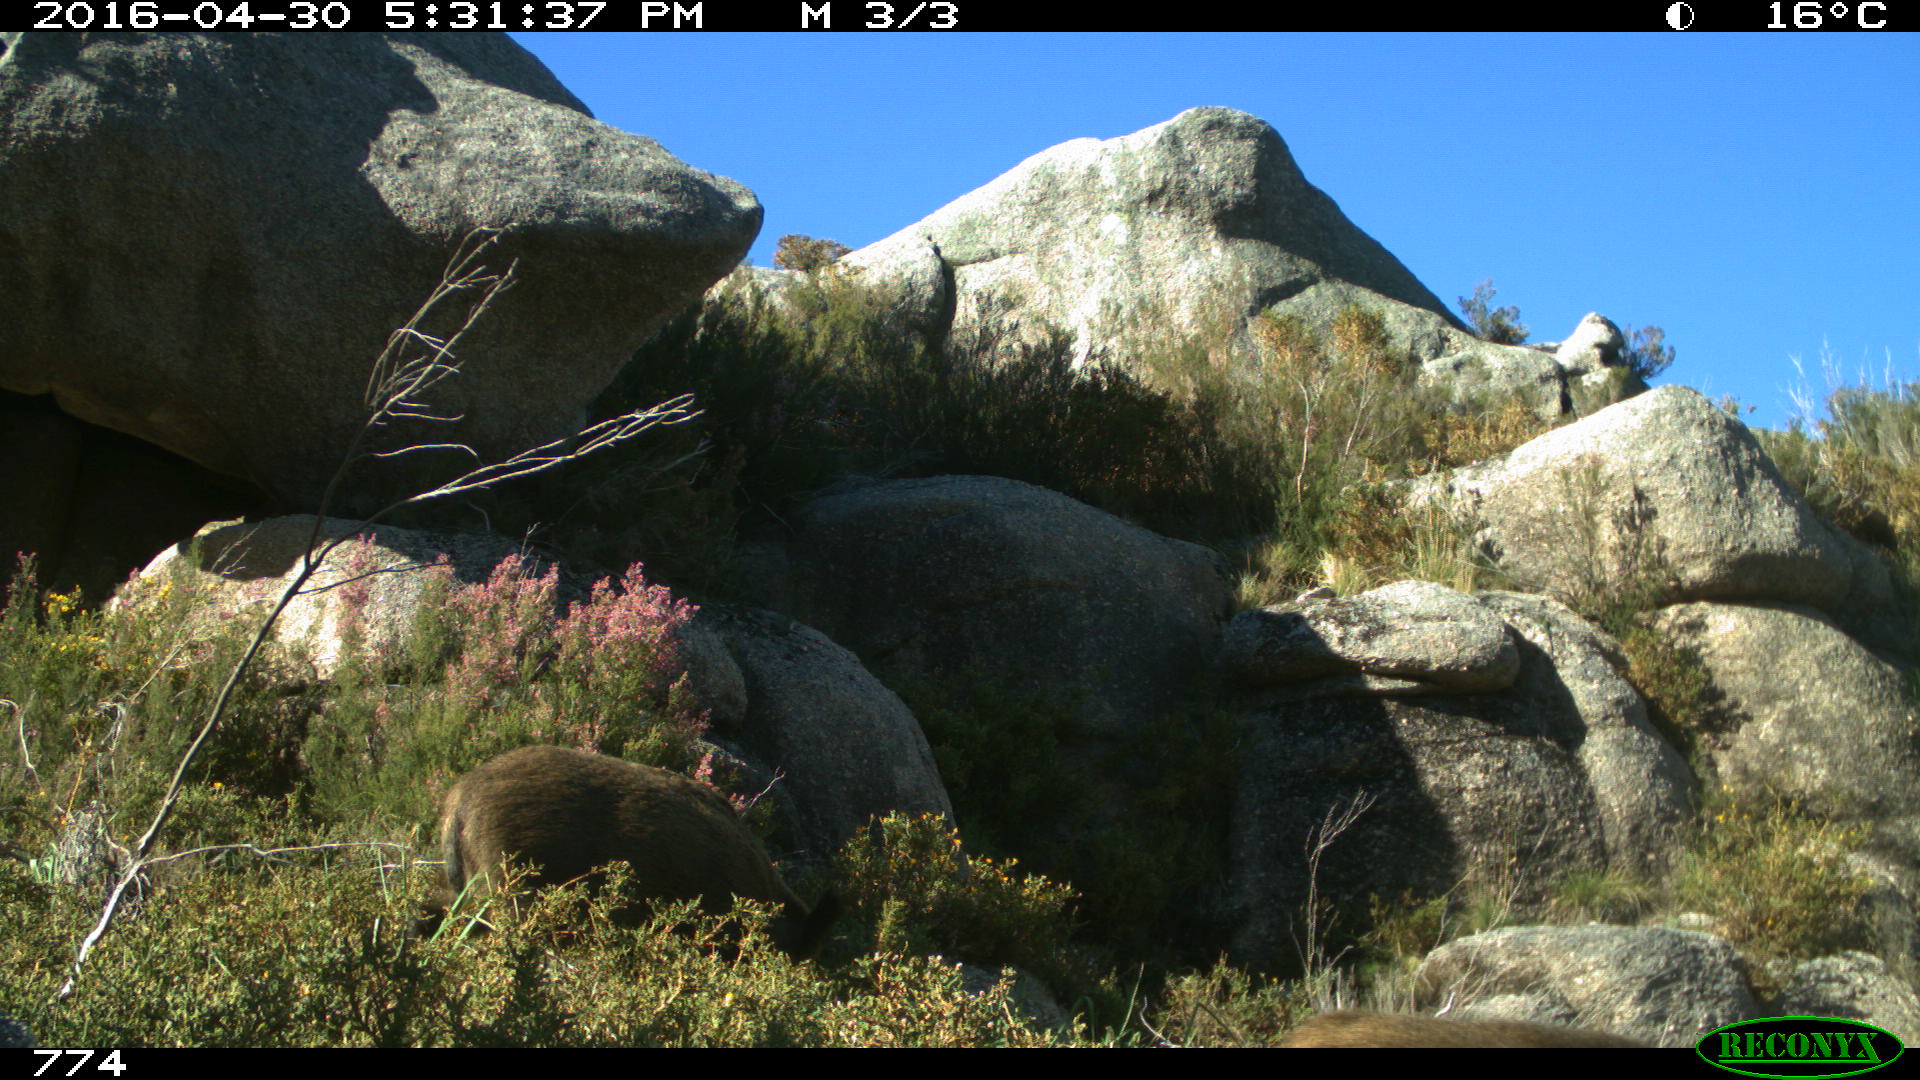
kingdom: Animalia
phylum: Chordata
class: Mammalia
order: Artiodactyla
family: Suidae
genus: Sus
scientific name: Sus scrofa
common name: Wild boar
